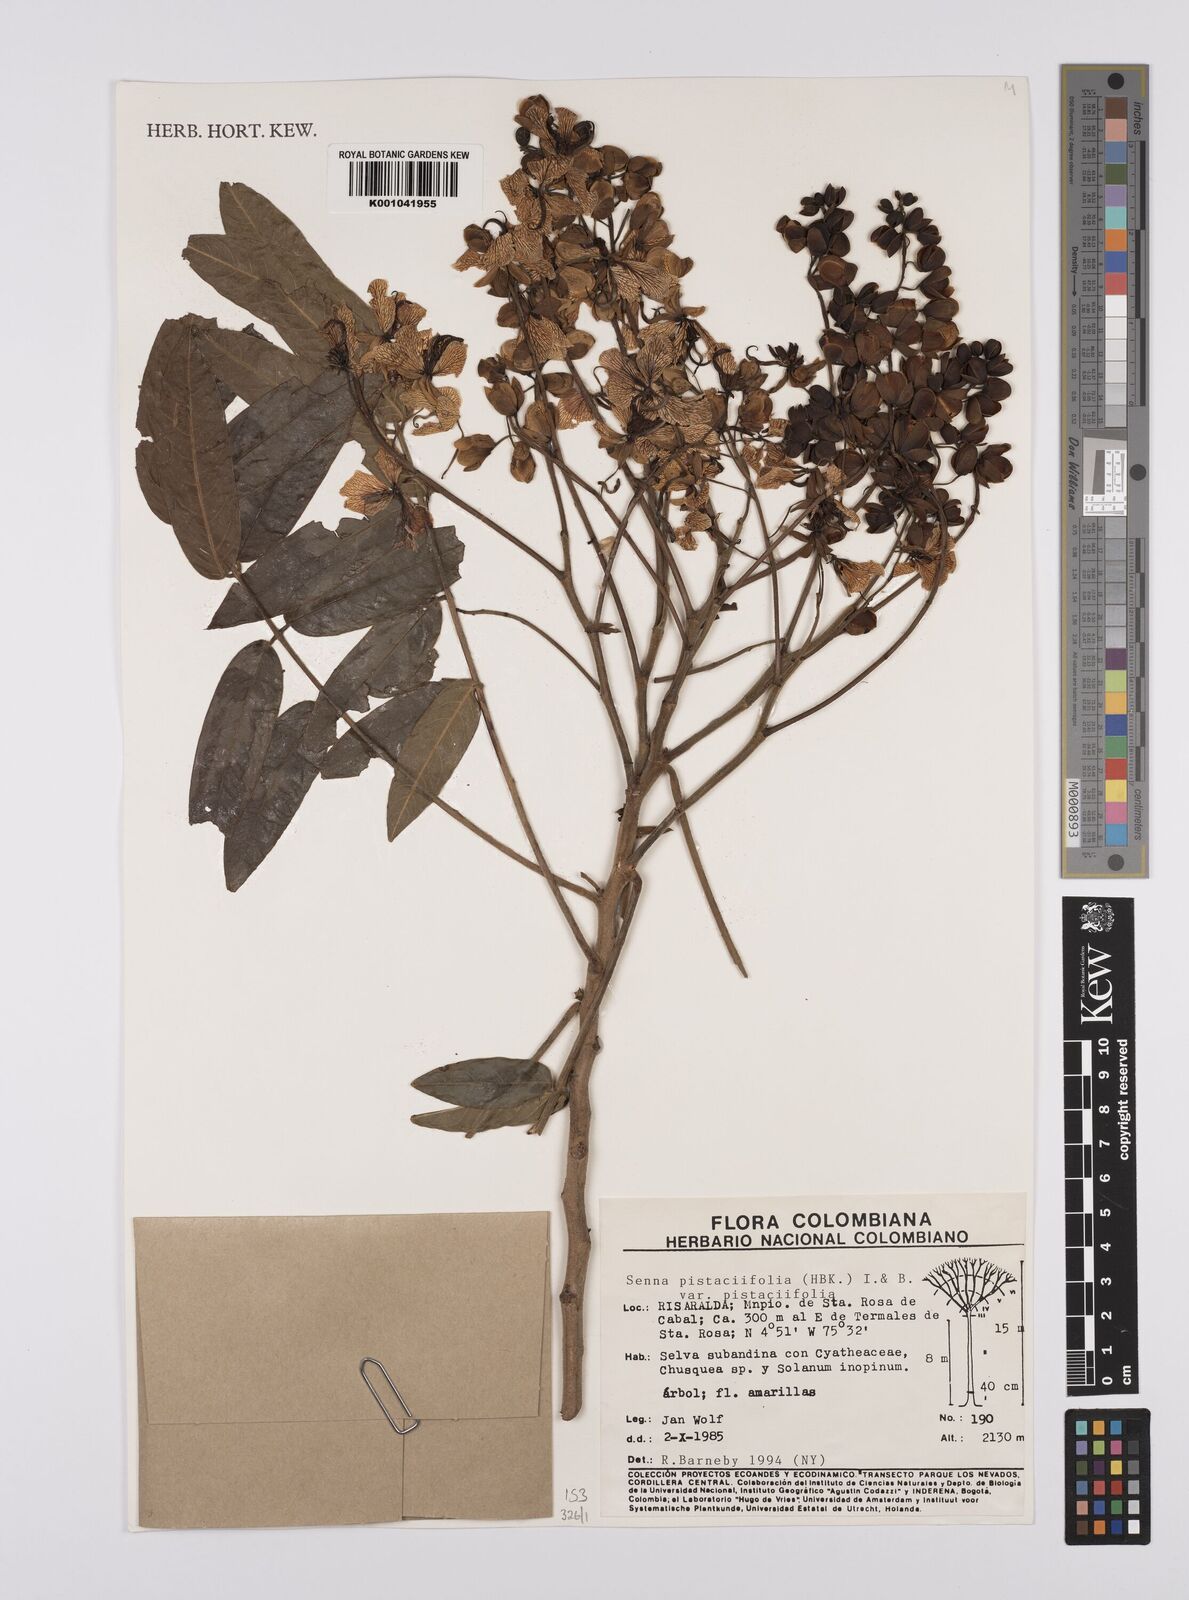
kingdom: Plantae
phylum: Tracheophyta
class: Magnoliopsida
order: Fabales
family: Fabaceae
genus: Senna
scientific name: Senna pistaciifolia
